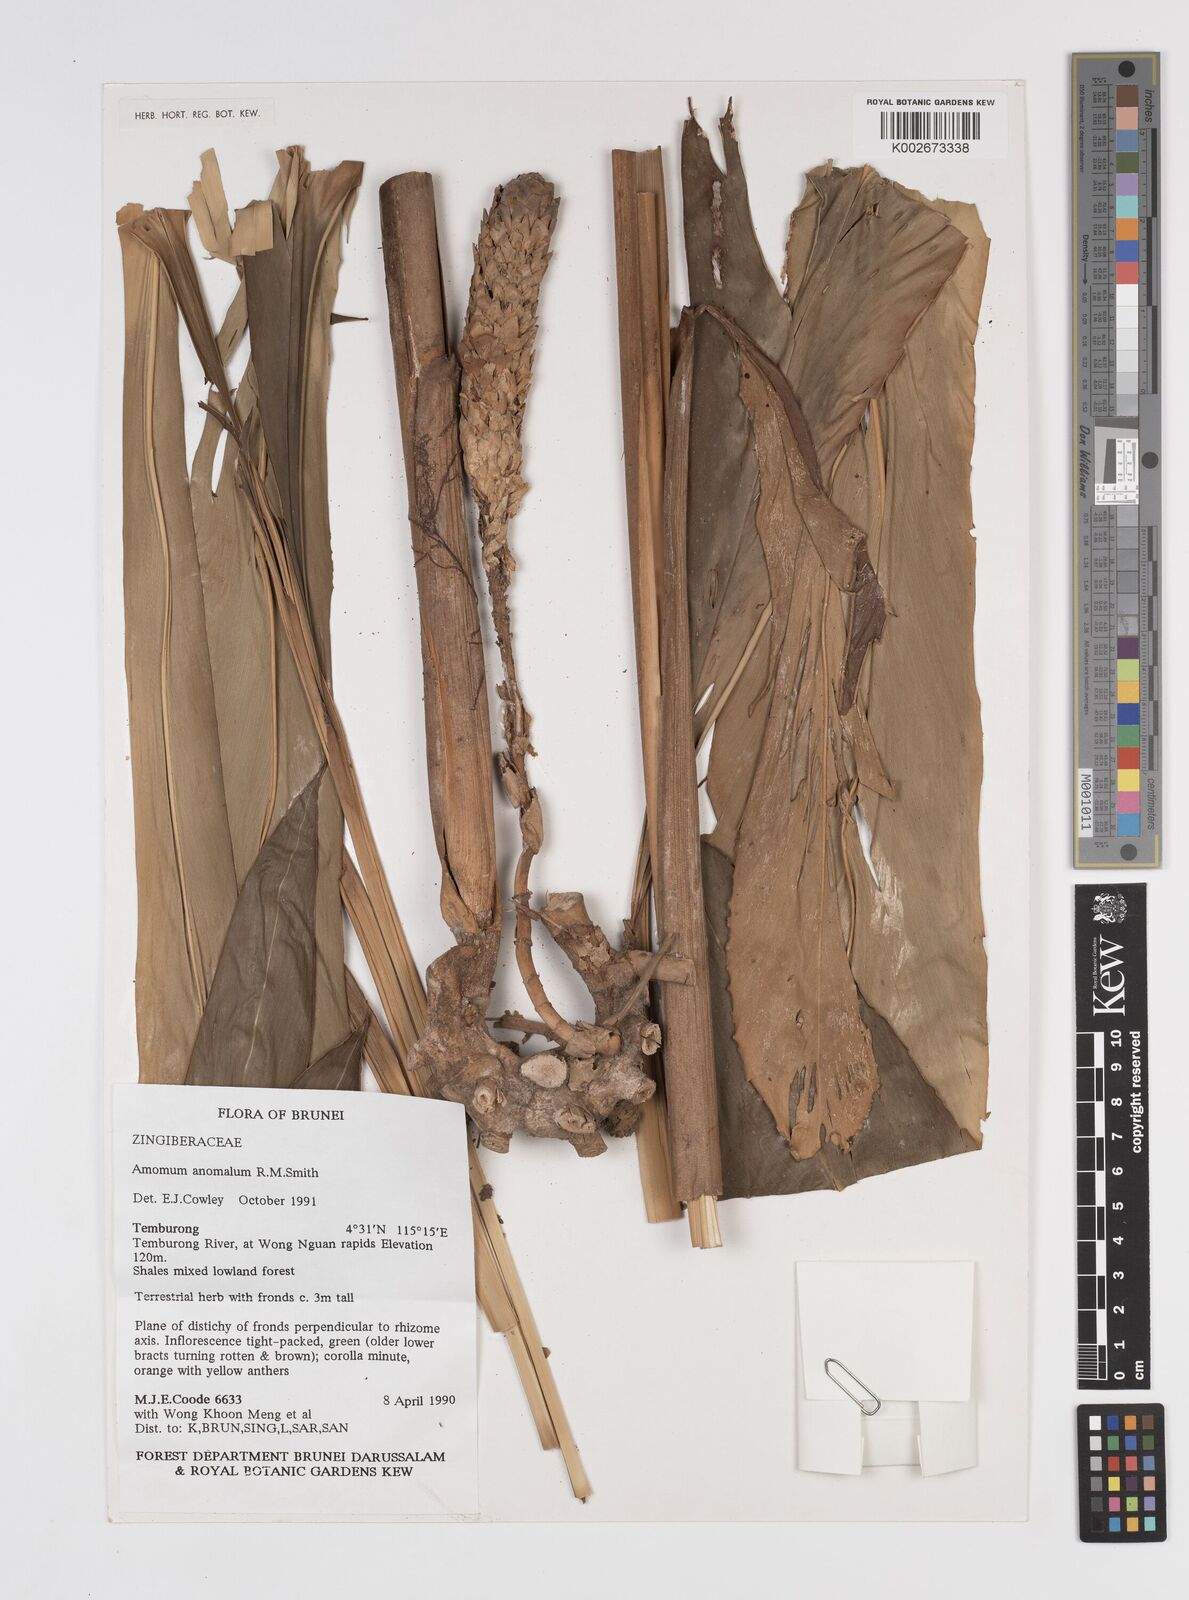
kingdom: Plantae
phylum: Tracheophyta
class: Liliopsida
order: Zingiberales
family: Zingiberaceae
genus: Sulettaria
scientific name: Sulettaria anomala
